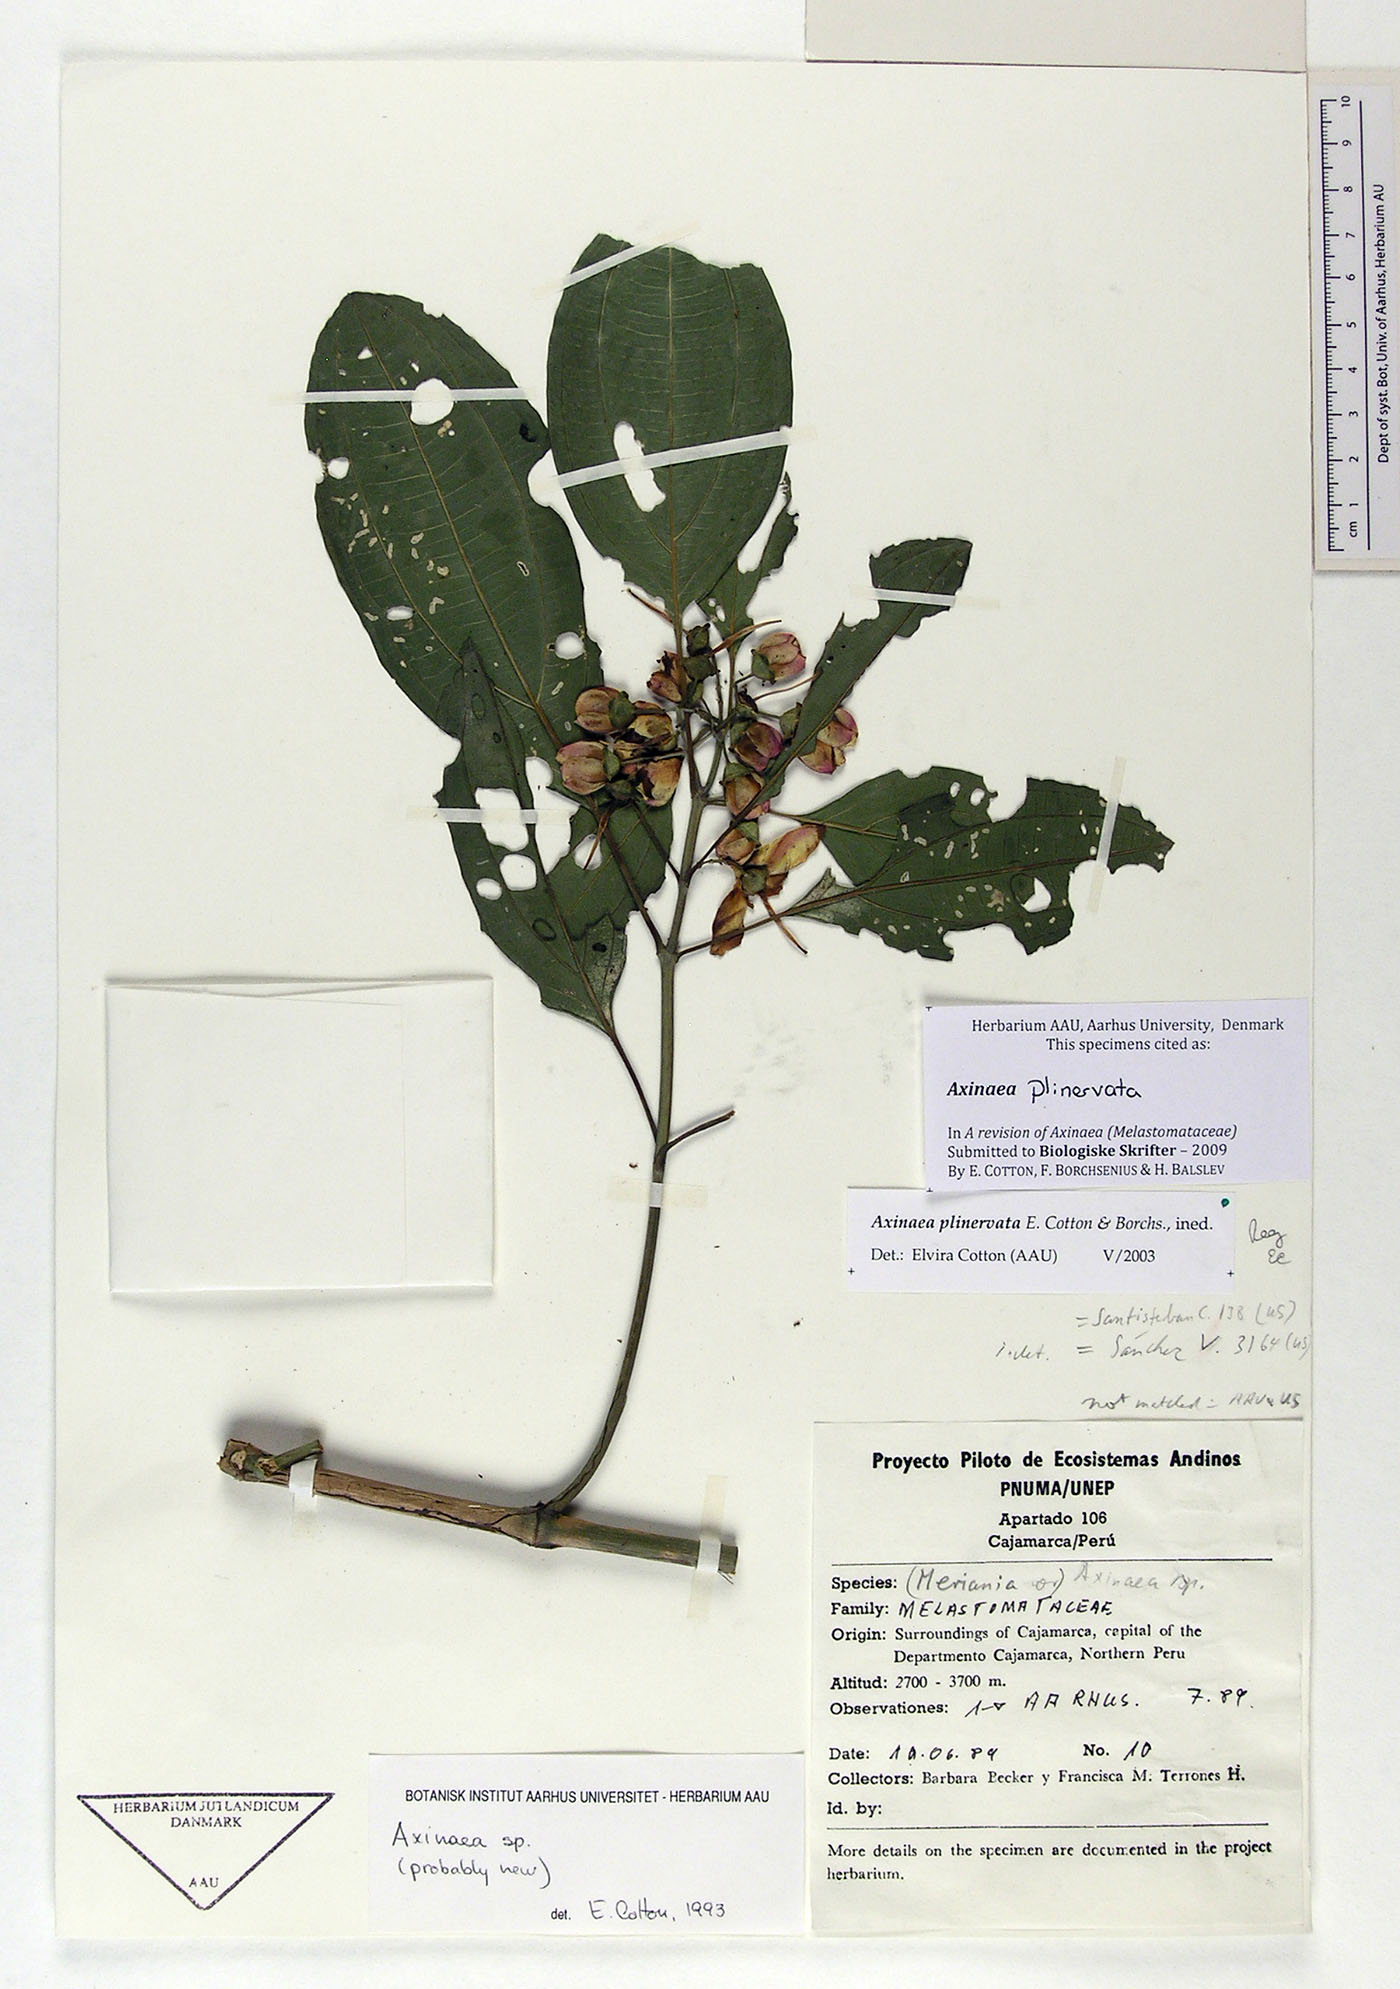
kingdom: Plantae
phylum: Tracheophyta
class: Magnoliopsida
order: Myrtales
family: Melastomataceae
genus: Axinaea
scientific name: Axinaea plinervata
